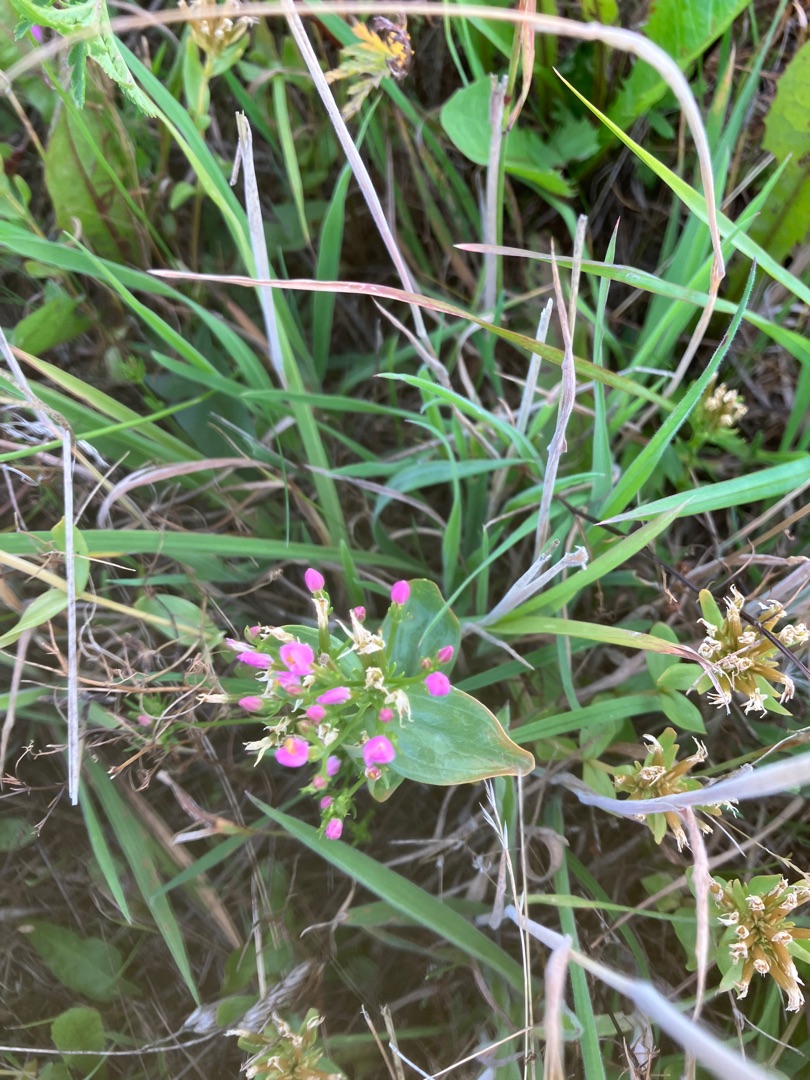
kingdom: Plantae
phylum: Tracheophyta
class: Magnoliopsida
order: Gentianales
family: Gentianaceae
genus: Centaurium
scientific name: Centaurium erythraea
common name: Mark-tusindgylden
